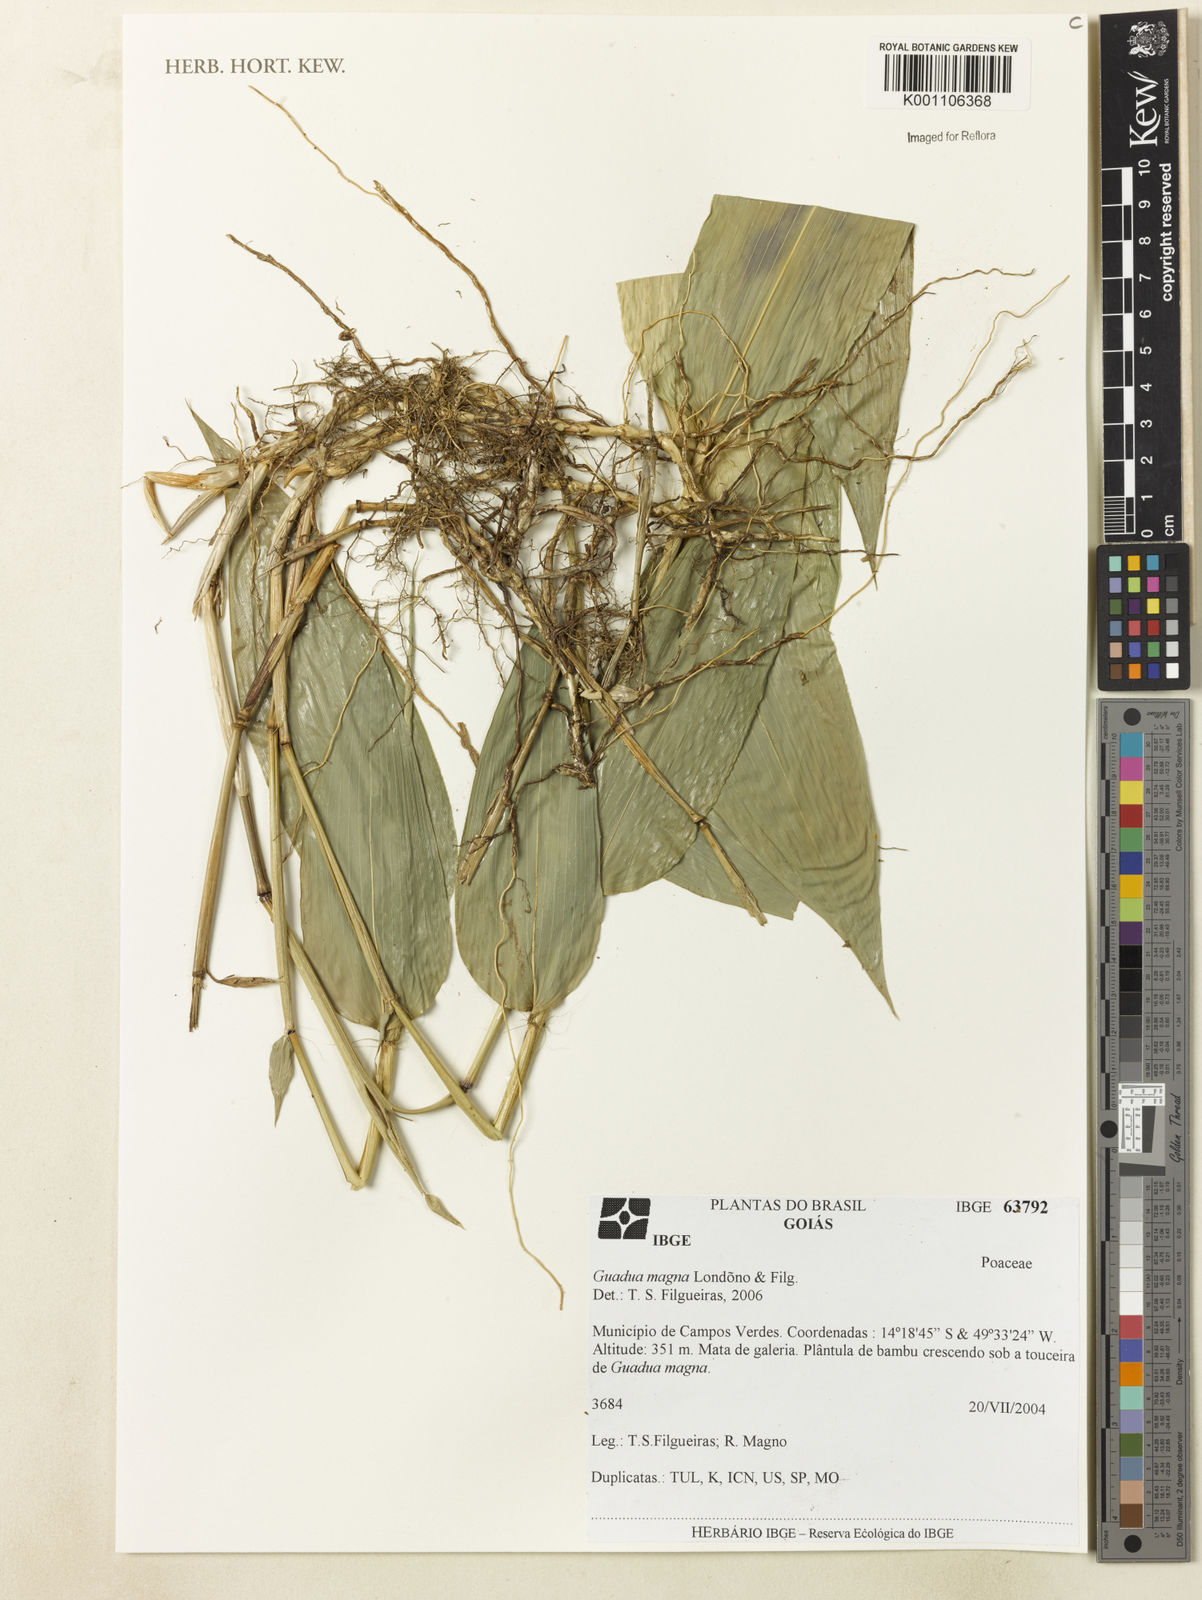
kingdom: Plantae
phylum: Tracheophyta
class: Liliopsida
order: Poales
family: Poaceae
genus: Guadua
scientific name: Guadua magna
